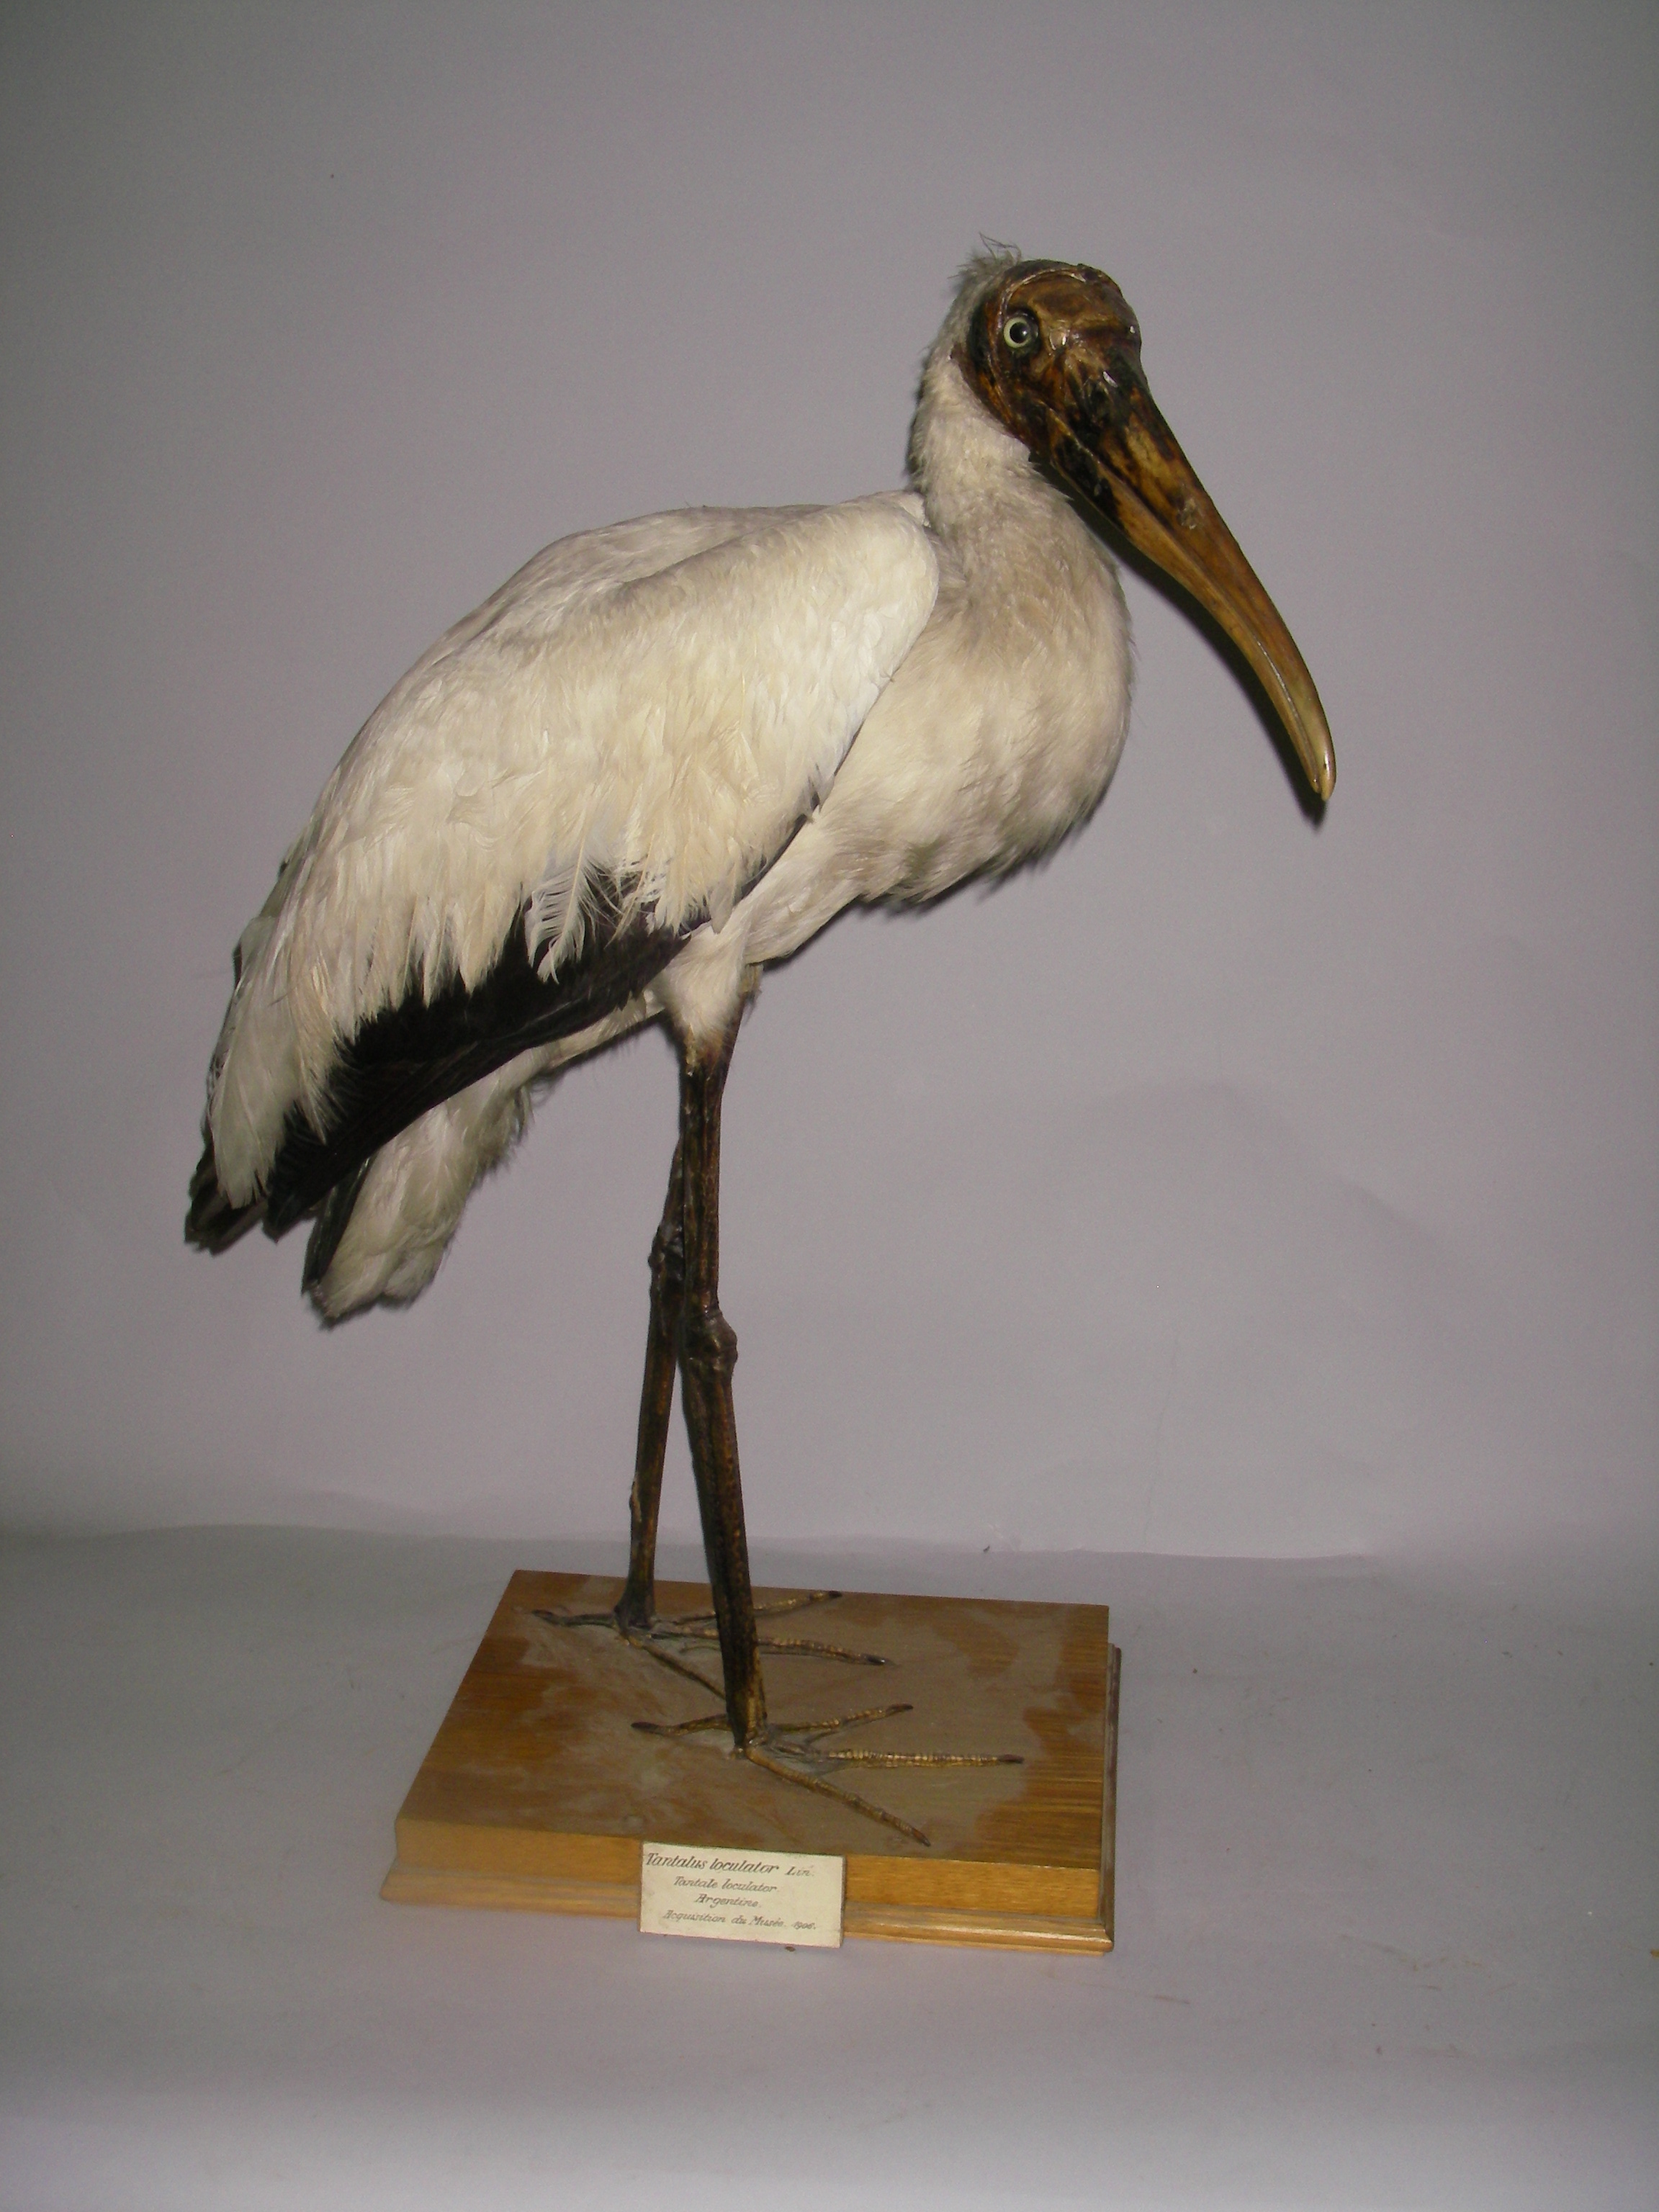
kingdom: Animalia
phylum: Chordata
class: Aves
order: Ciconiiformes
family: Ciconiidae
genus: Mycteria
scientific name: Mycteria americana
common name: Wood stork
